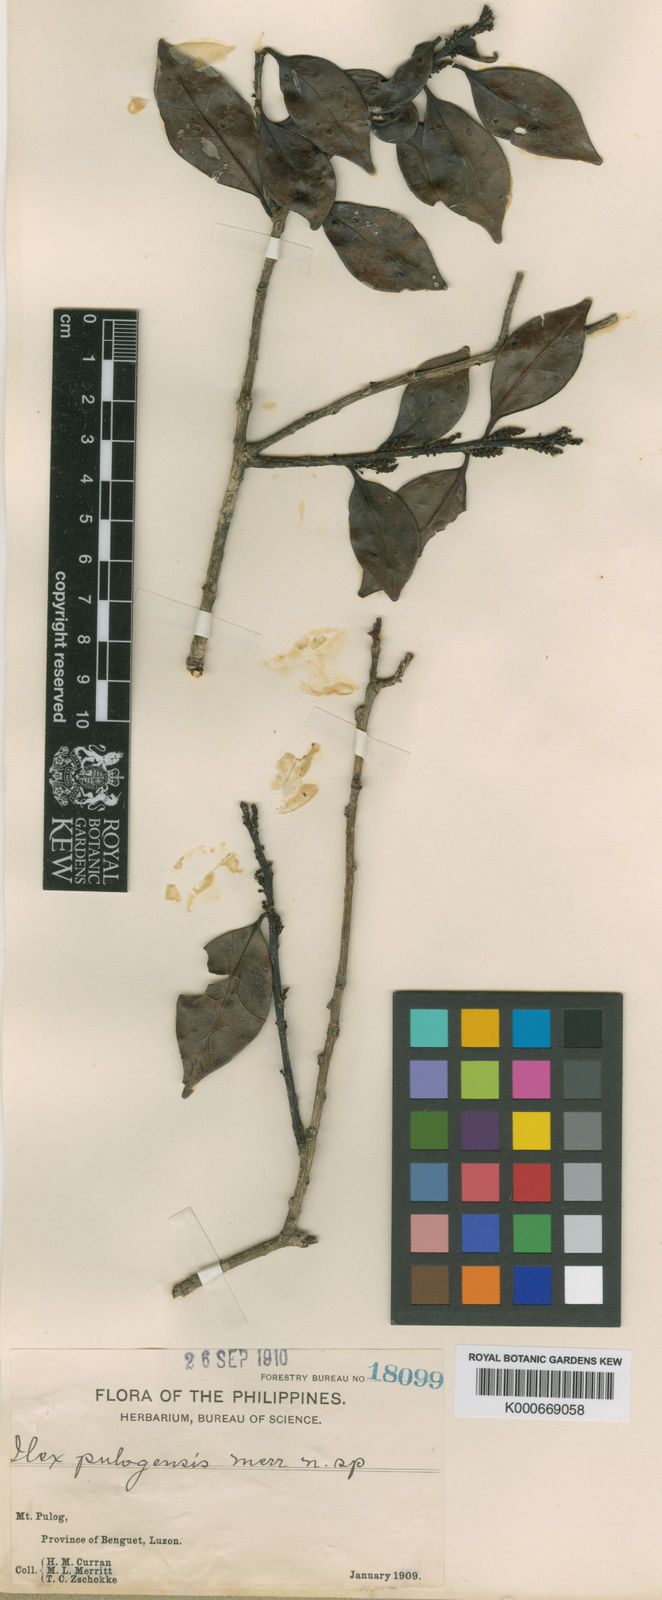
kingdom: Plantae
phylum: Tracheophyta
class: Magnoliopsida
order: Aquifoliales
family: Aquifoliaceae
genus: Ilex
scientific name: Ilex malaccensis
